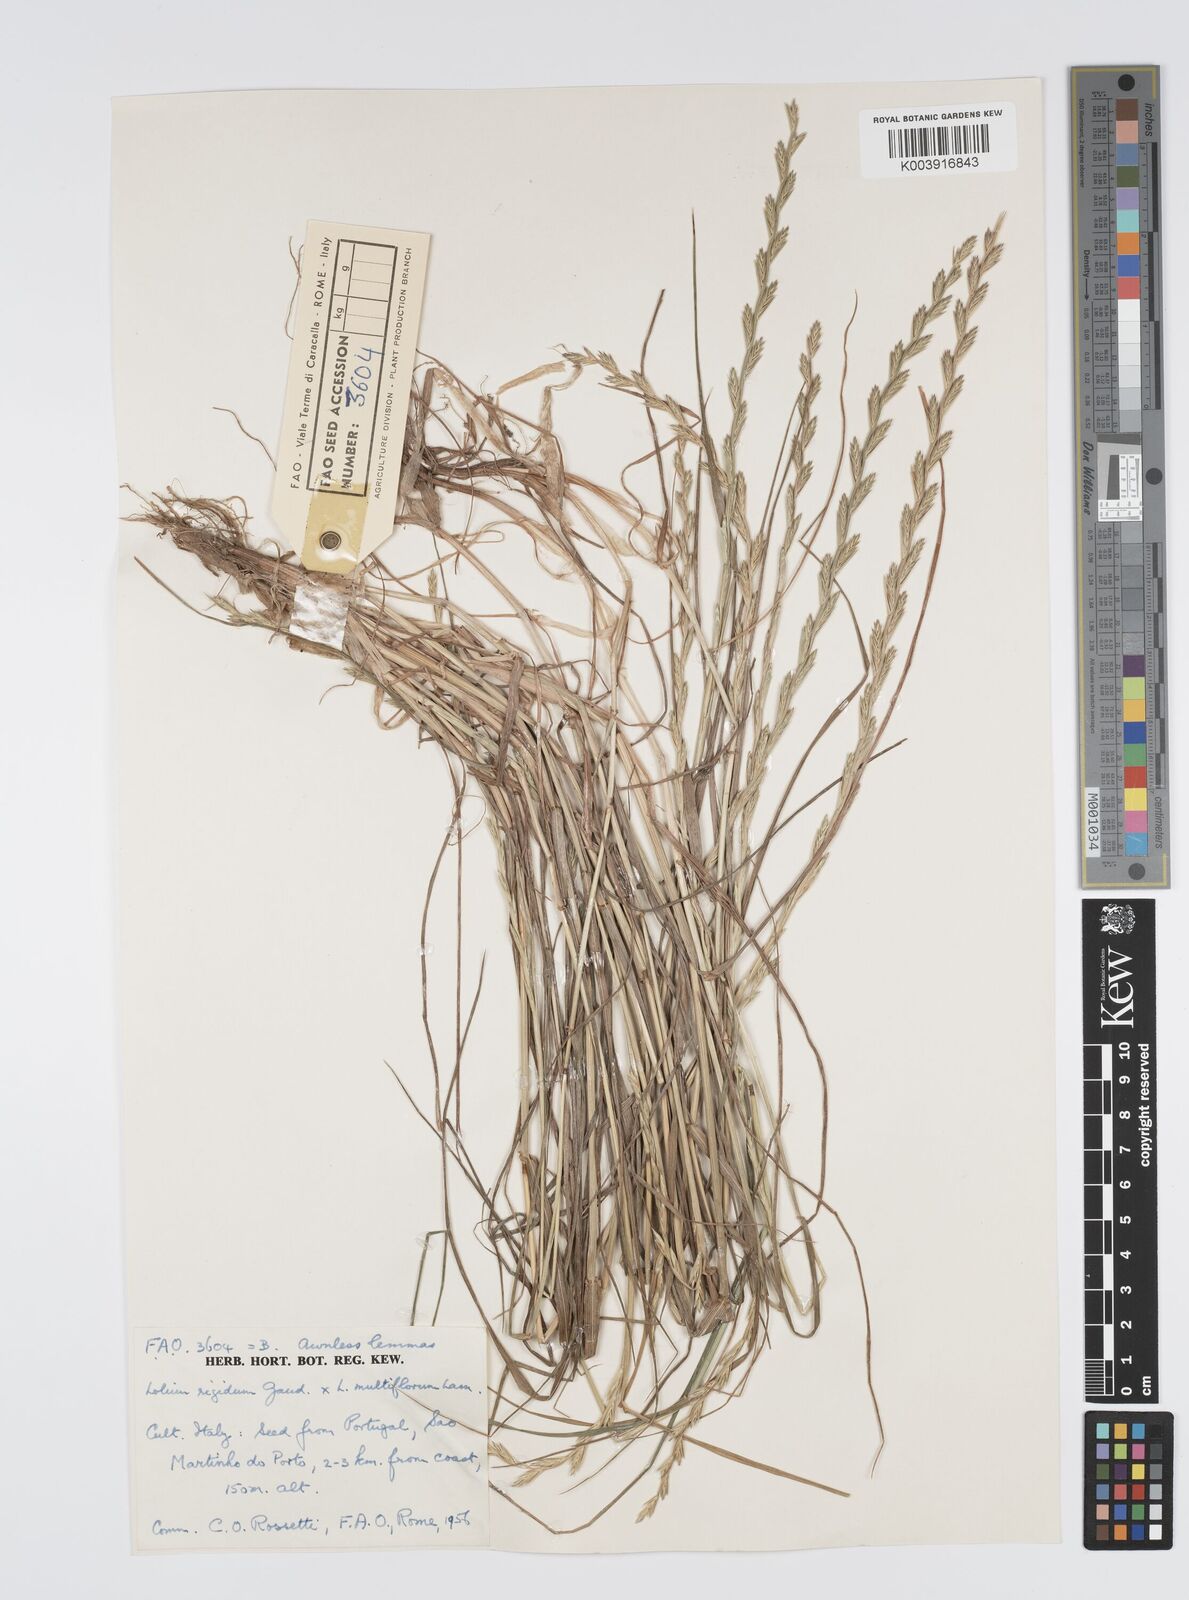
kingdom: Plantae
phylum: Tracheophyta
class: Liliopsida
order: Poales
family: Poaceae
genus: Lolium
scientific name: Lolium multiflorum
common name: Annual ryegrass
